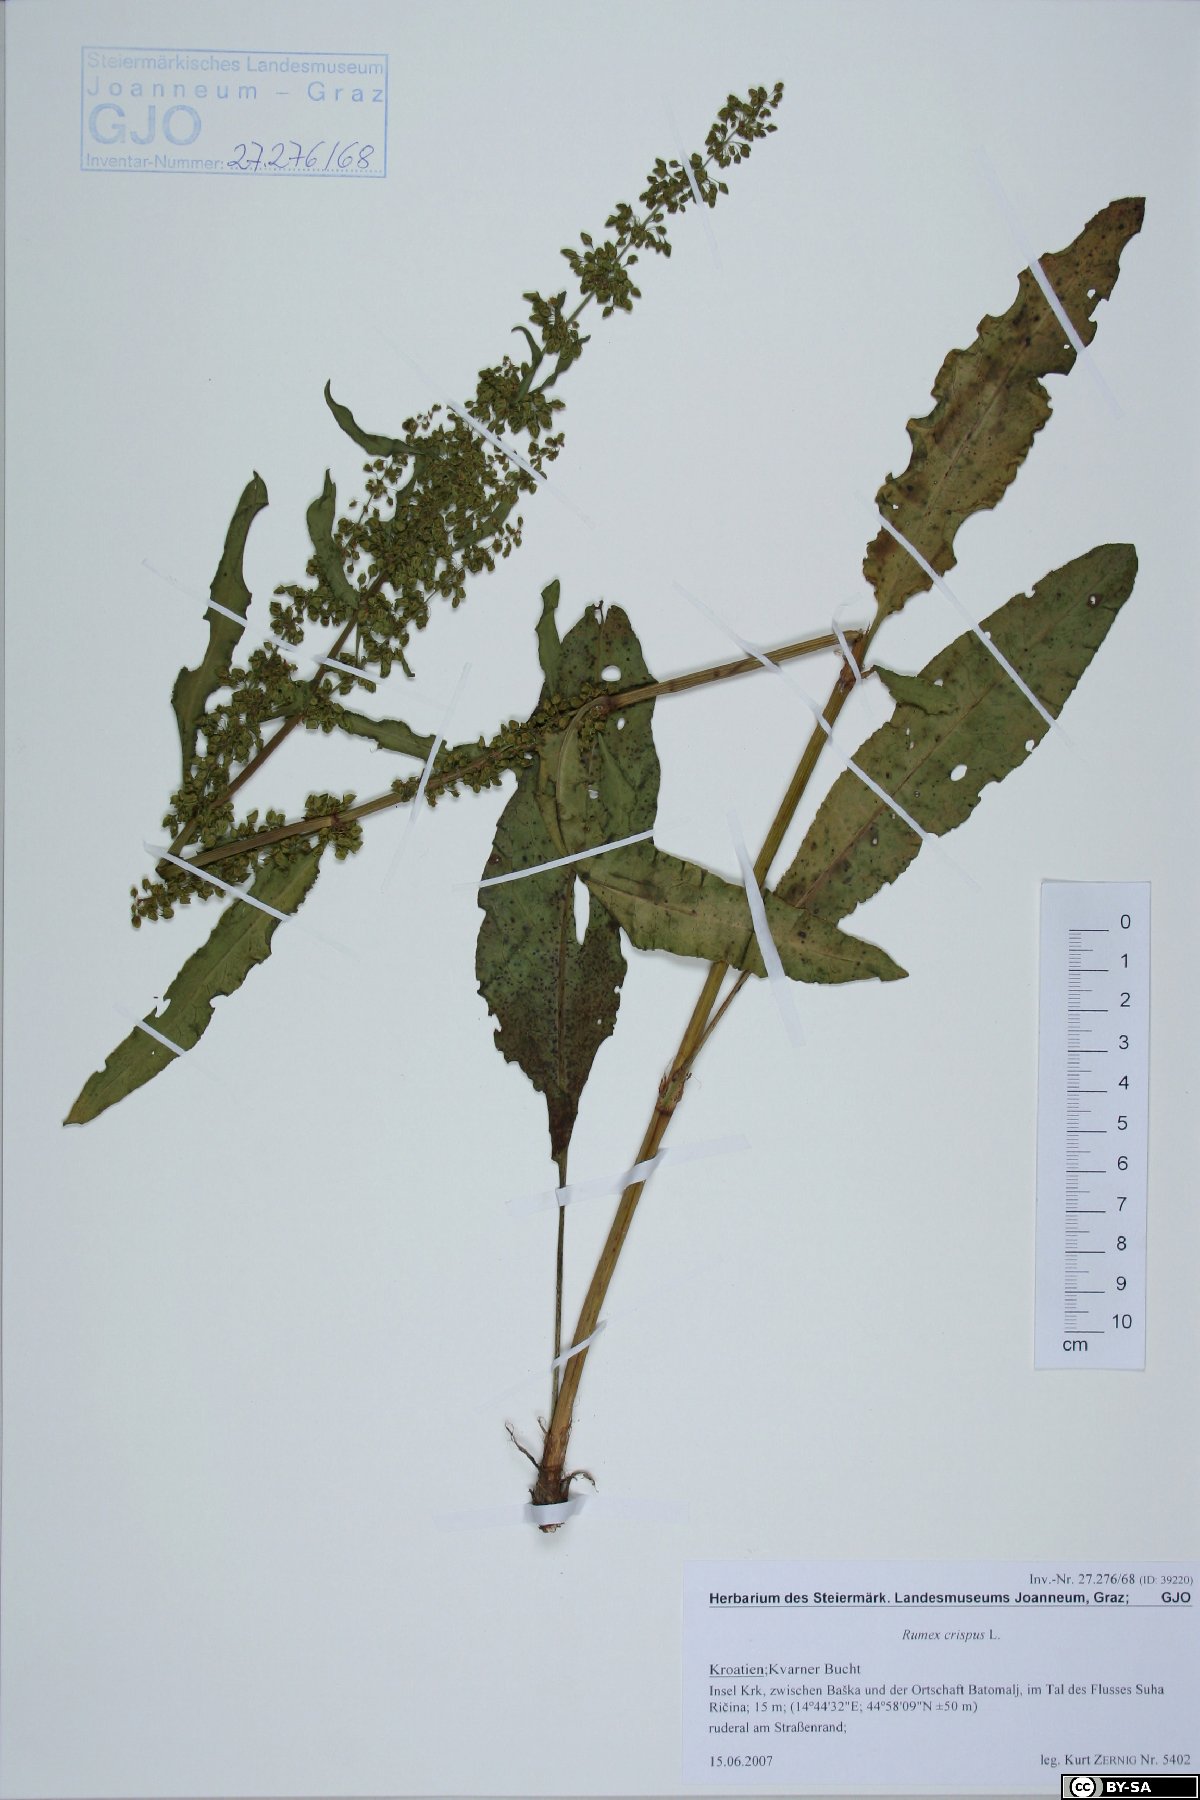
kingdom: Plantae
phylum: Tracheophyta
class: Magnoliopsida
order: Caryophyllales
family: Polygonaceae
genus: Rumex
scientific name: Rumex crispus
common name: Curled dock
